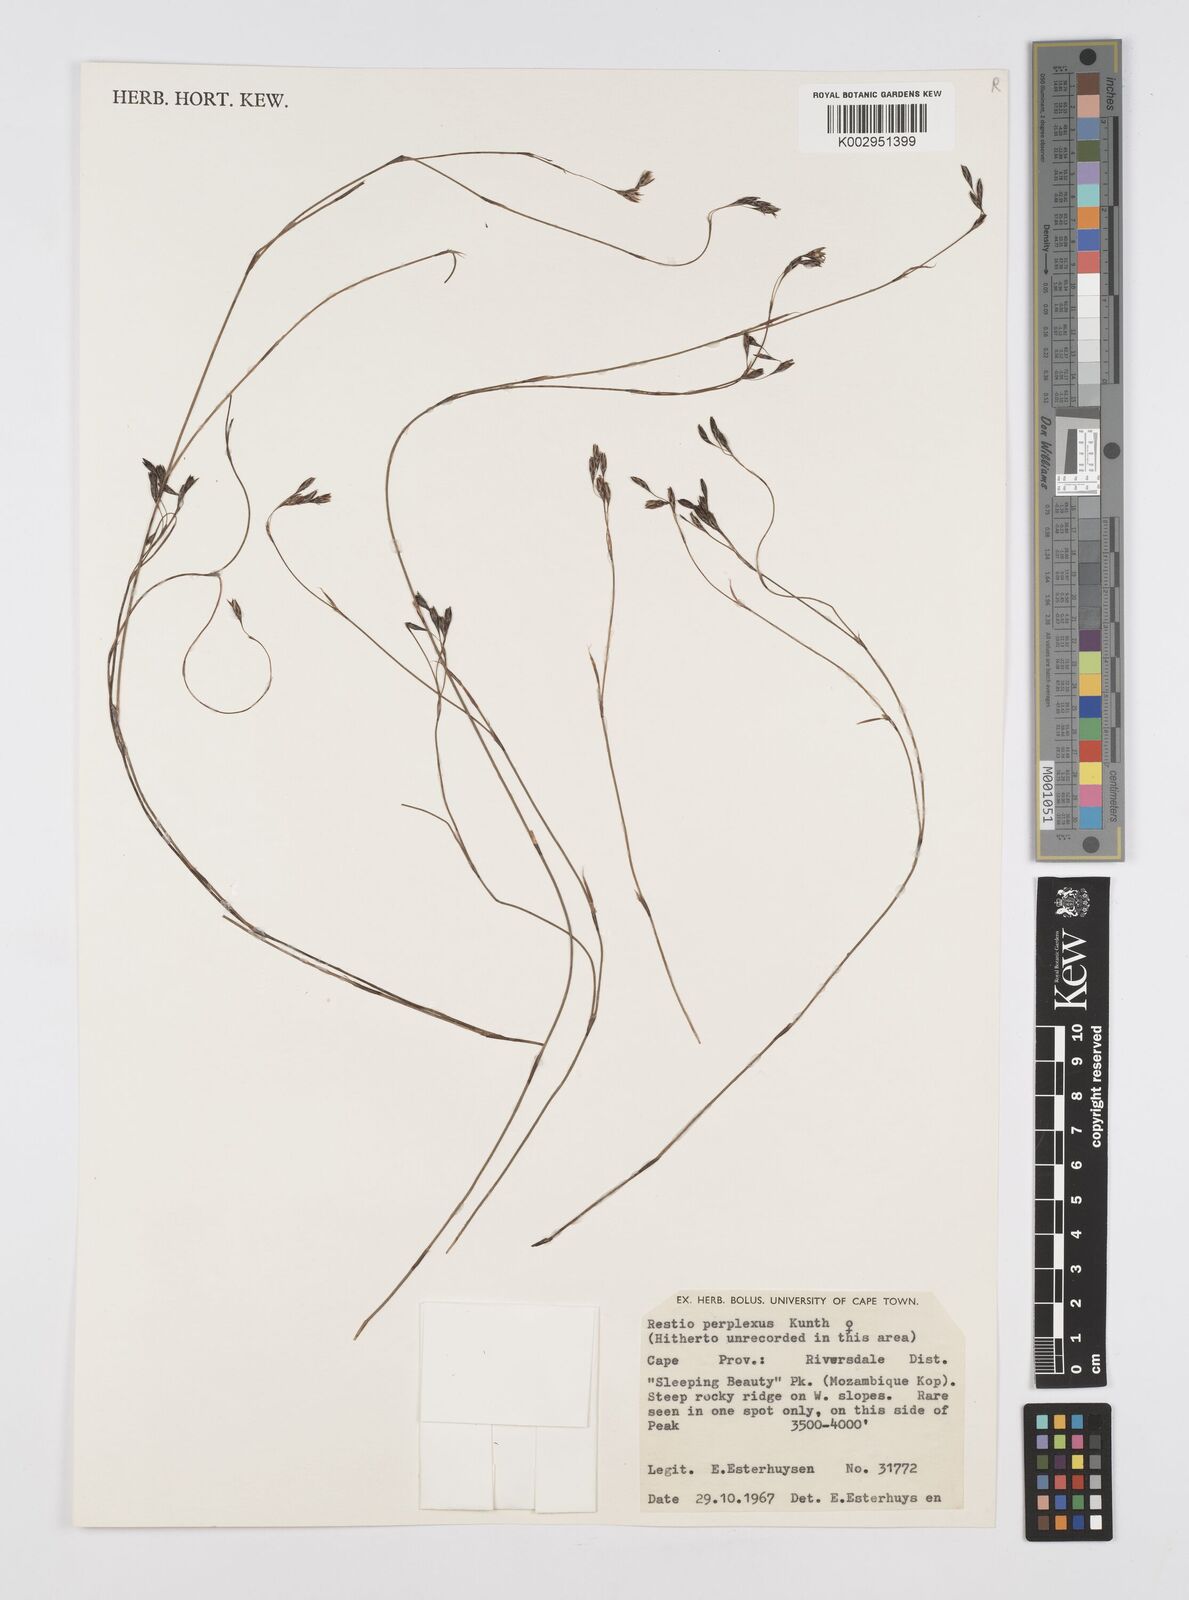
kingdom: Plantae
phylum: Tracheophyta
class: Liliopsida
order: Poales
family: Restionaceae
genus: Restio
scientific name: Restio perplexus
